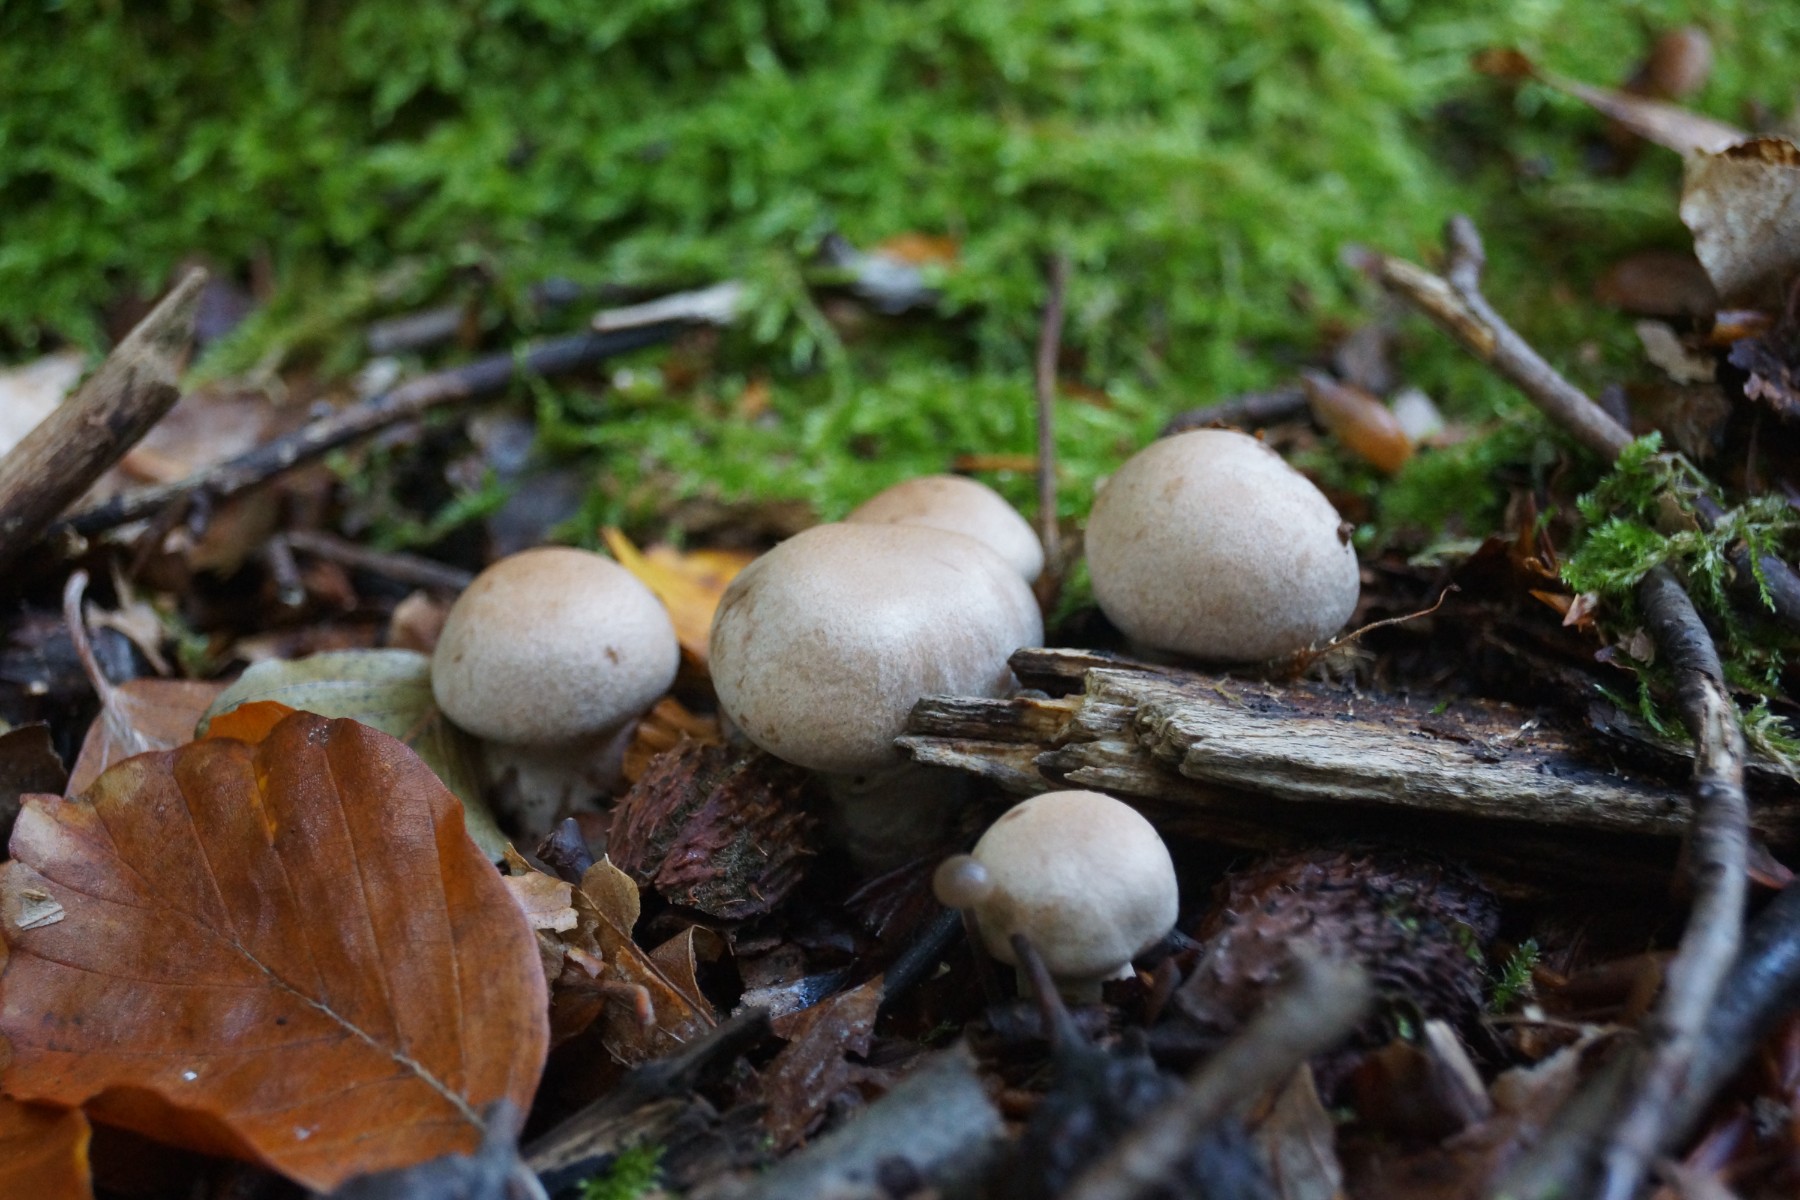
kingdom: Fungi
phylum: Basidiomycota
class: Agaricomycetes
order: Agaricales
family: Cortinariaceae
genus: Cortinarius
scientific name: Cortinarius torvus
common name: champignonagtig slørhat
